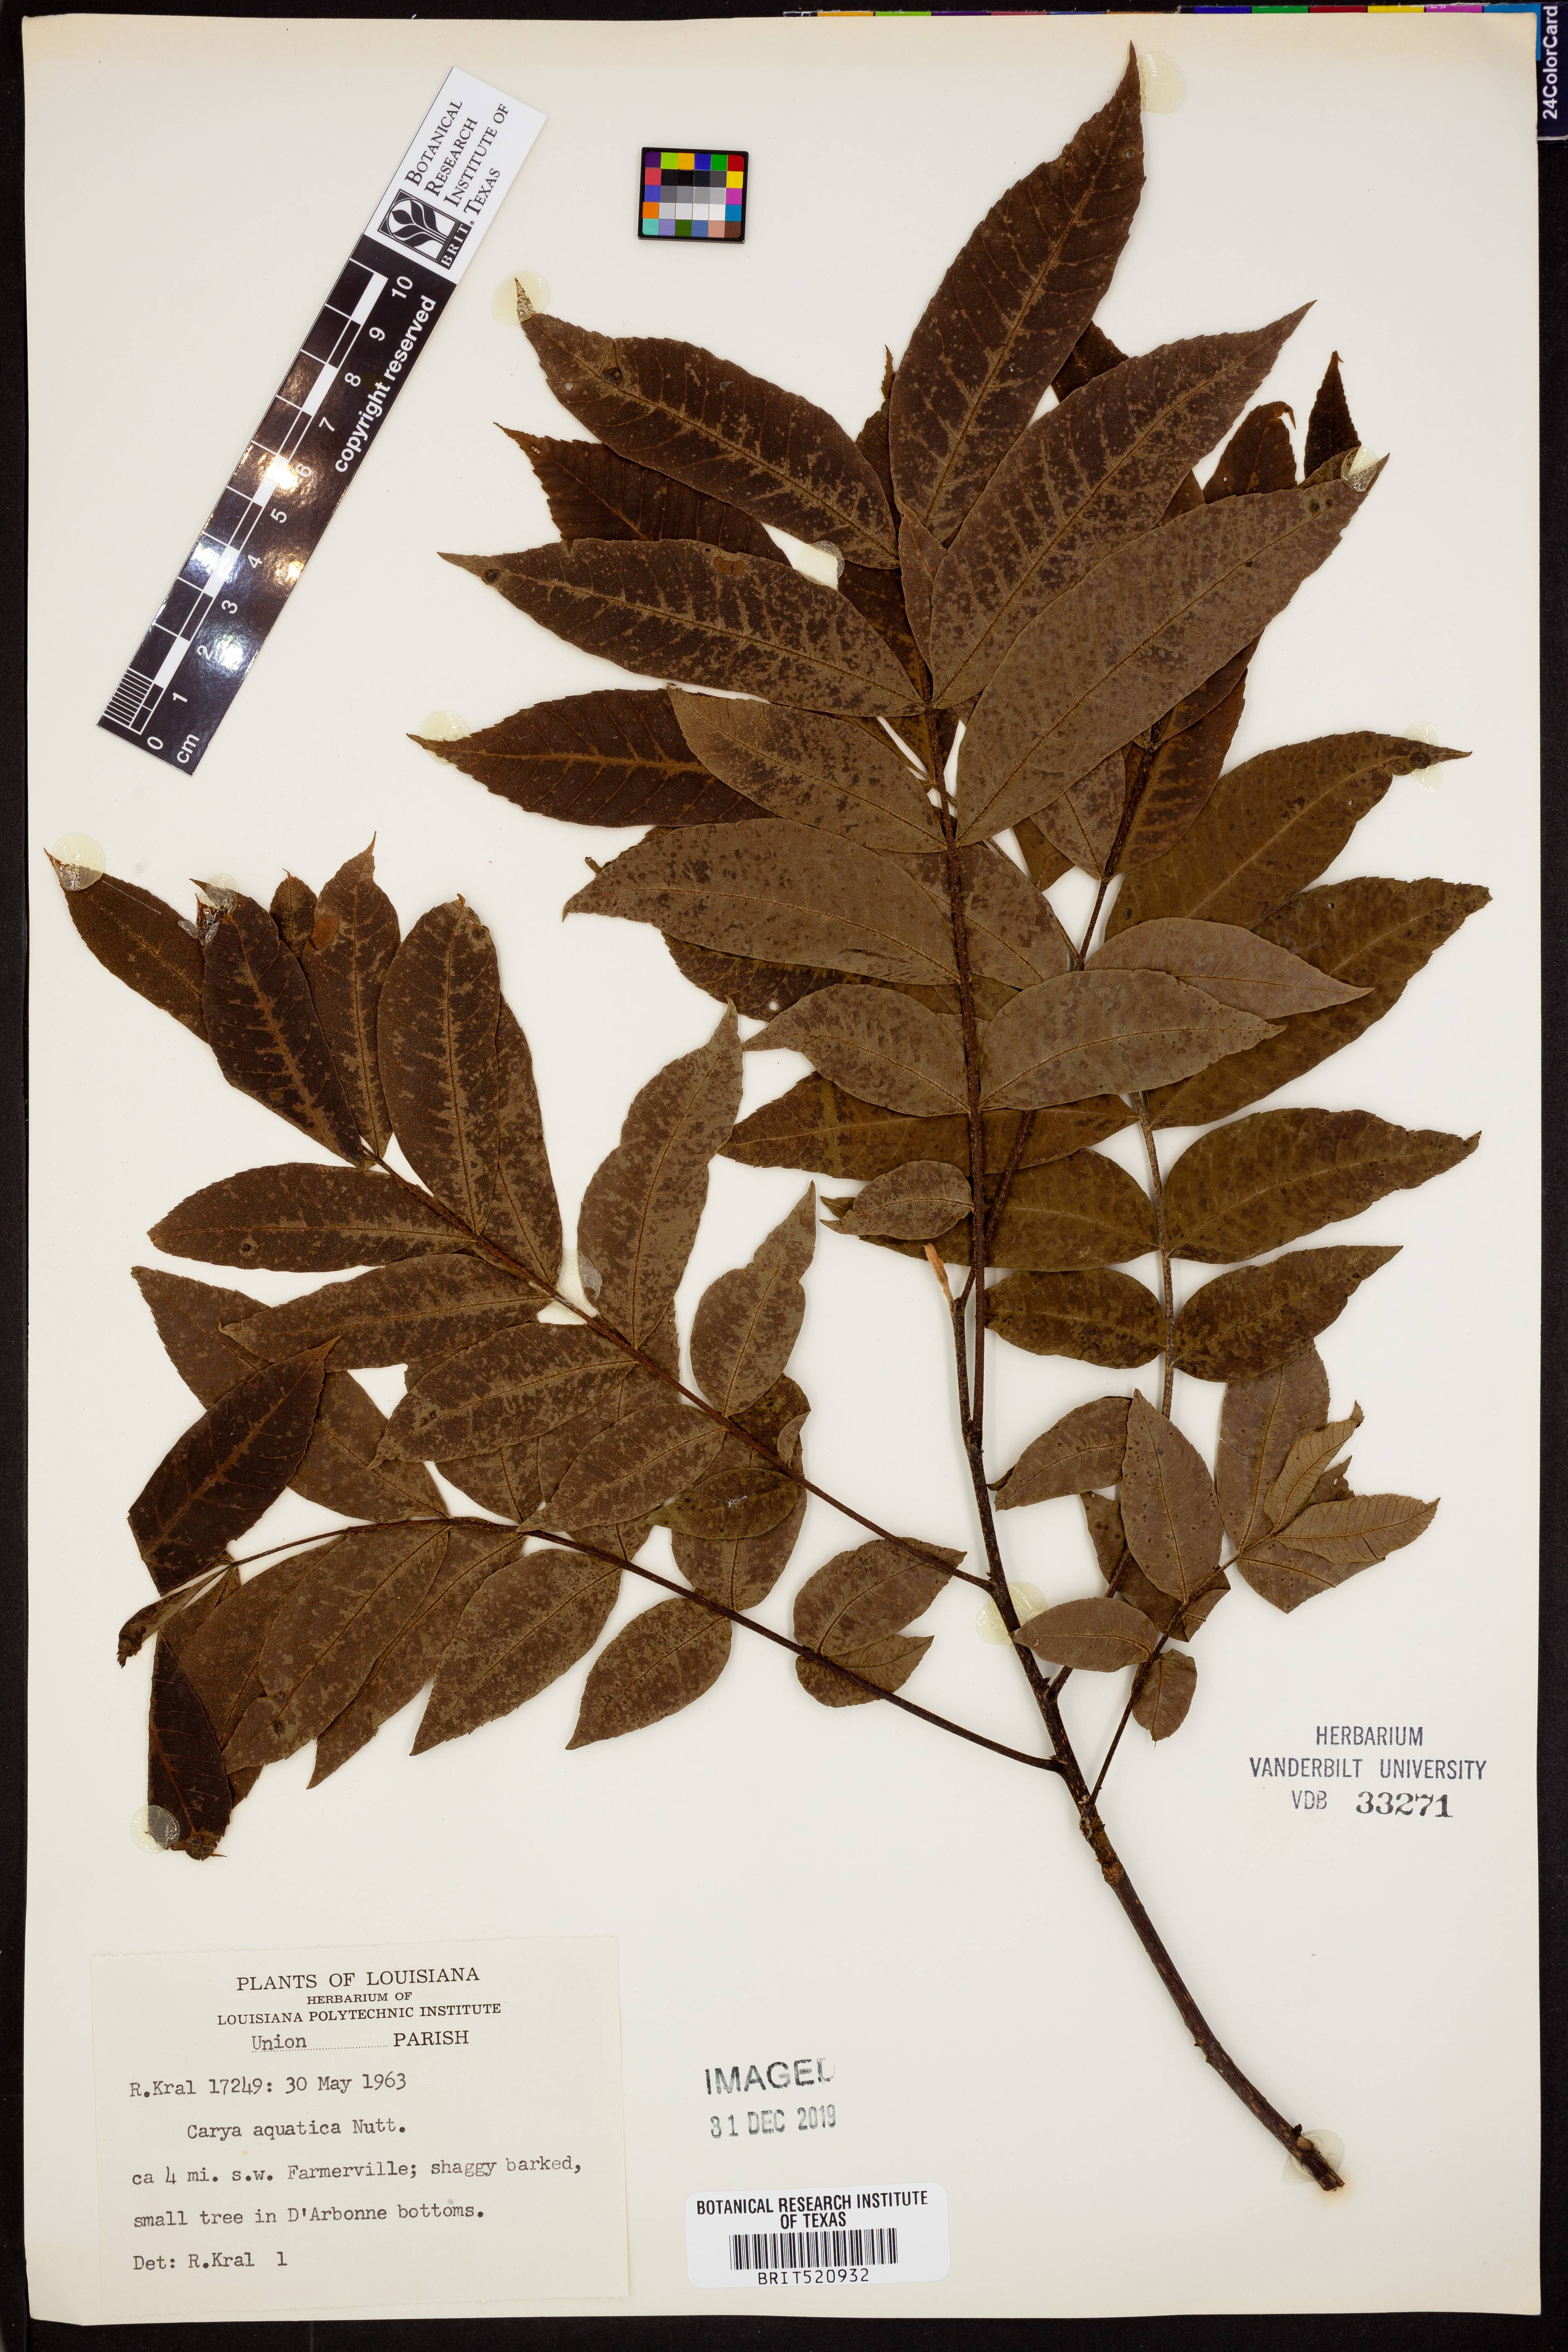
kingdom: Plantae
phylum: Tracheophyta
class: Magnoliopsida
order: Fagales
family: Juglandaceae
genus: Carya
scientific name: Carya aquatica
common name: Water hickory
